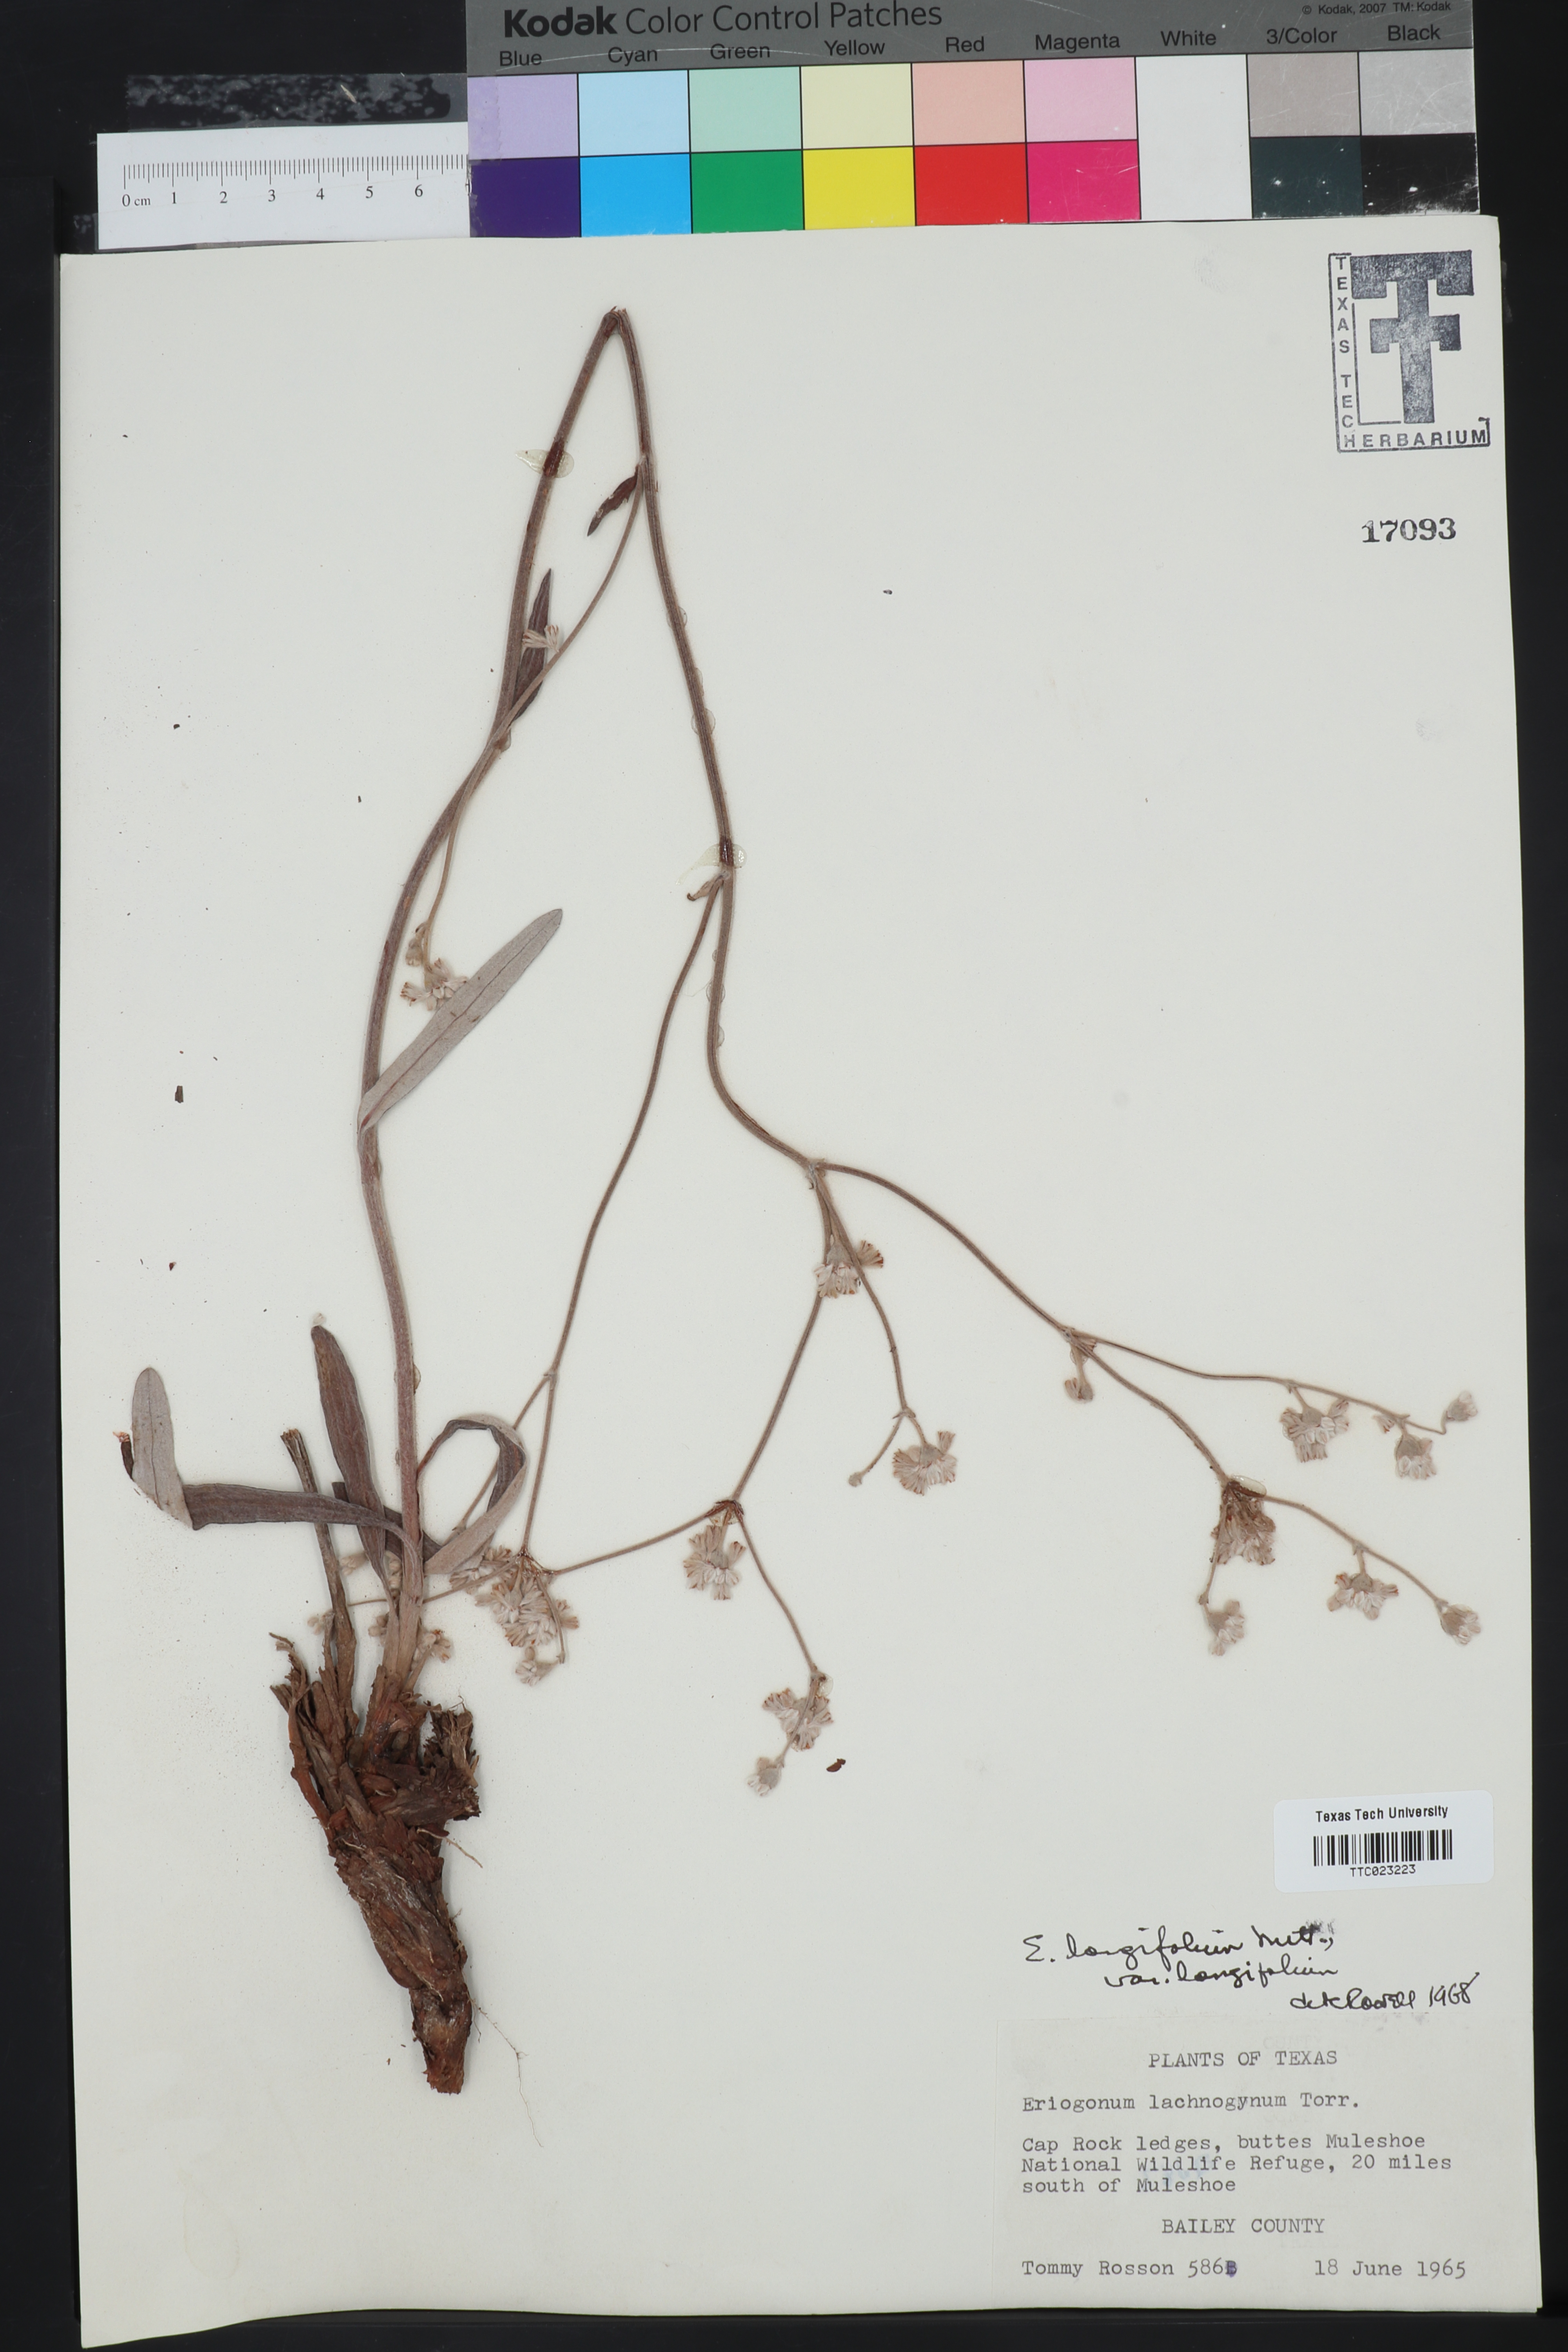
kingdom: Plantae
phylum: Tracheophyta
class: Magnoliopsida
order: Caryophyllales
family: Polygonaceae
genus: Eriogonum
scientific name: Eriogonum longifolium
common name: Longleaf wild buckwheat
